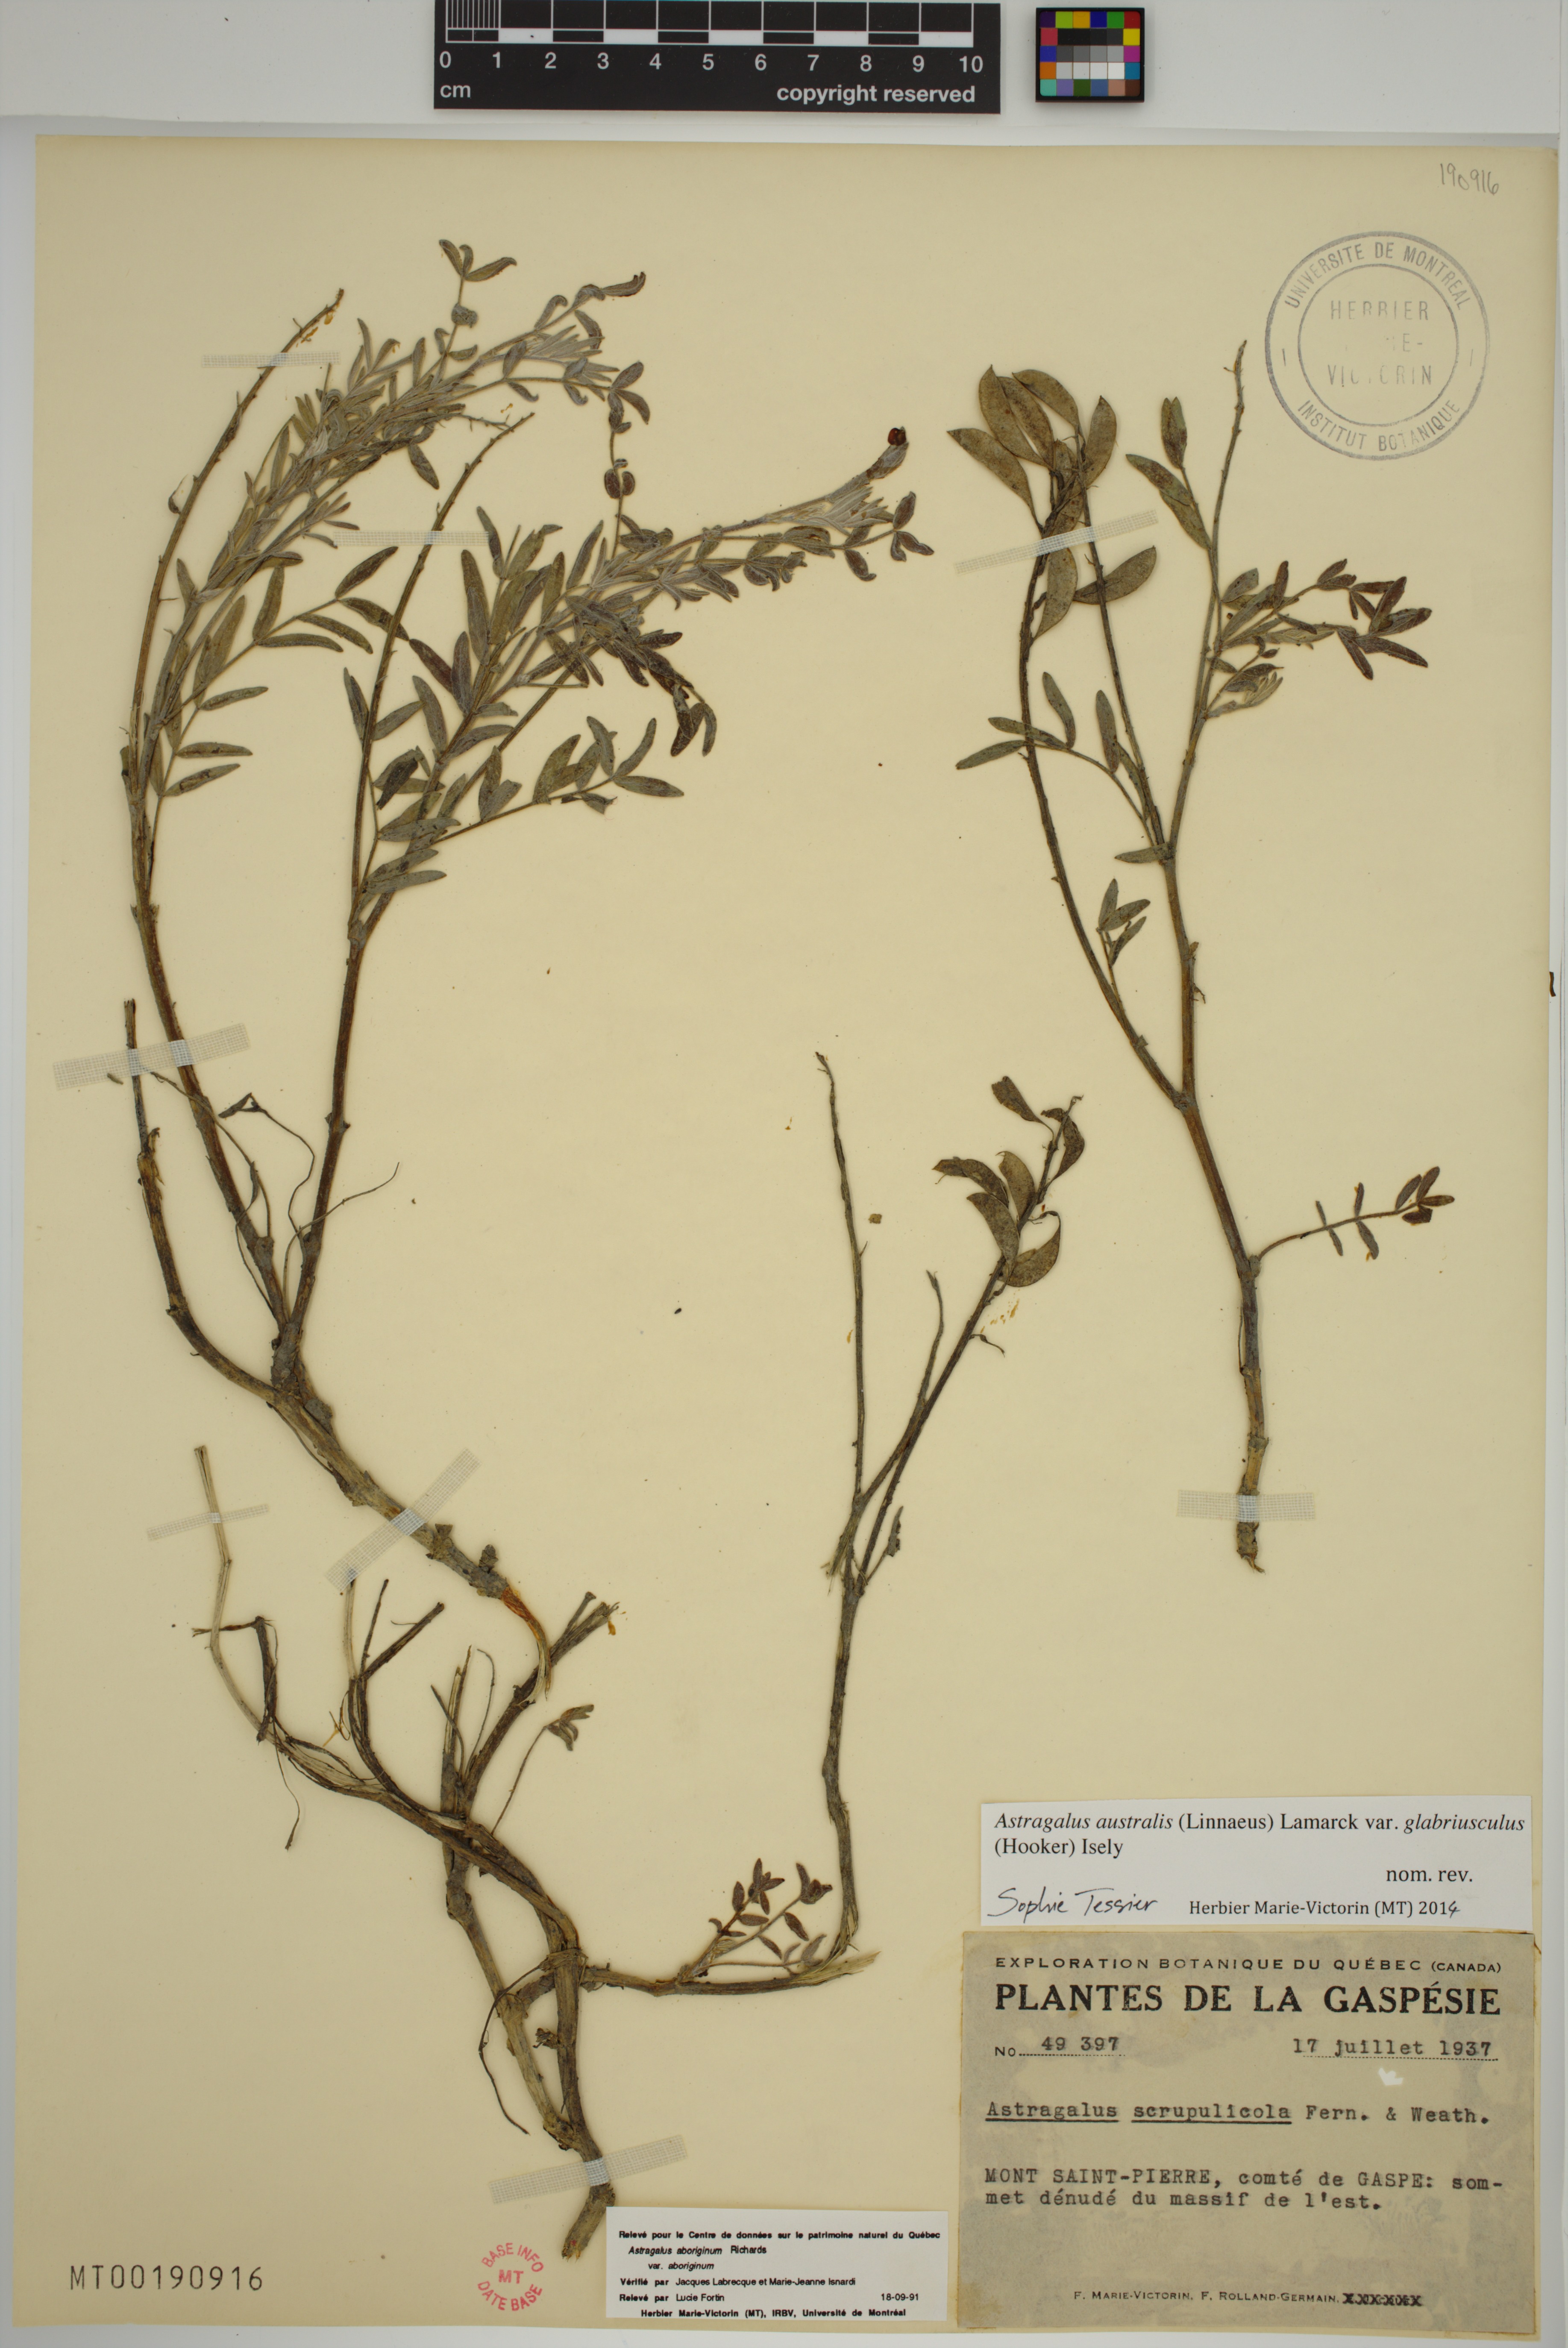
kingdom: Plantae
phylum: Tracheophyta
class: Magnoliopsida
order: Fabales
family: Fabaceae
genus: Astragalus
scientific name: Astragalus aboriginorum
